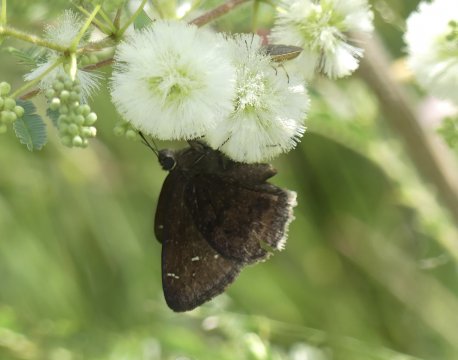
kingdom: Animalia
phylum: Arthropoda
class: Insecta
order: Lepidoptera
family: Hesperiidae
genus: Thorybes
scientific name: Thorybes drusius
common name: Drusius Cloudywing
